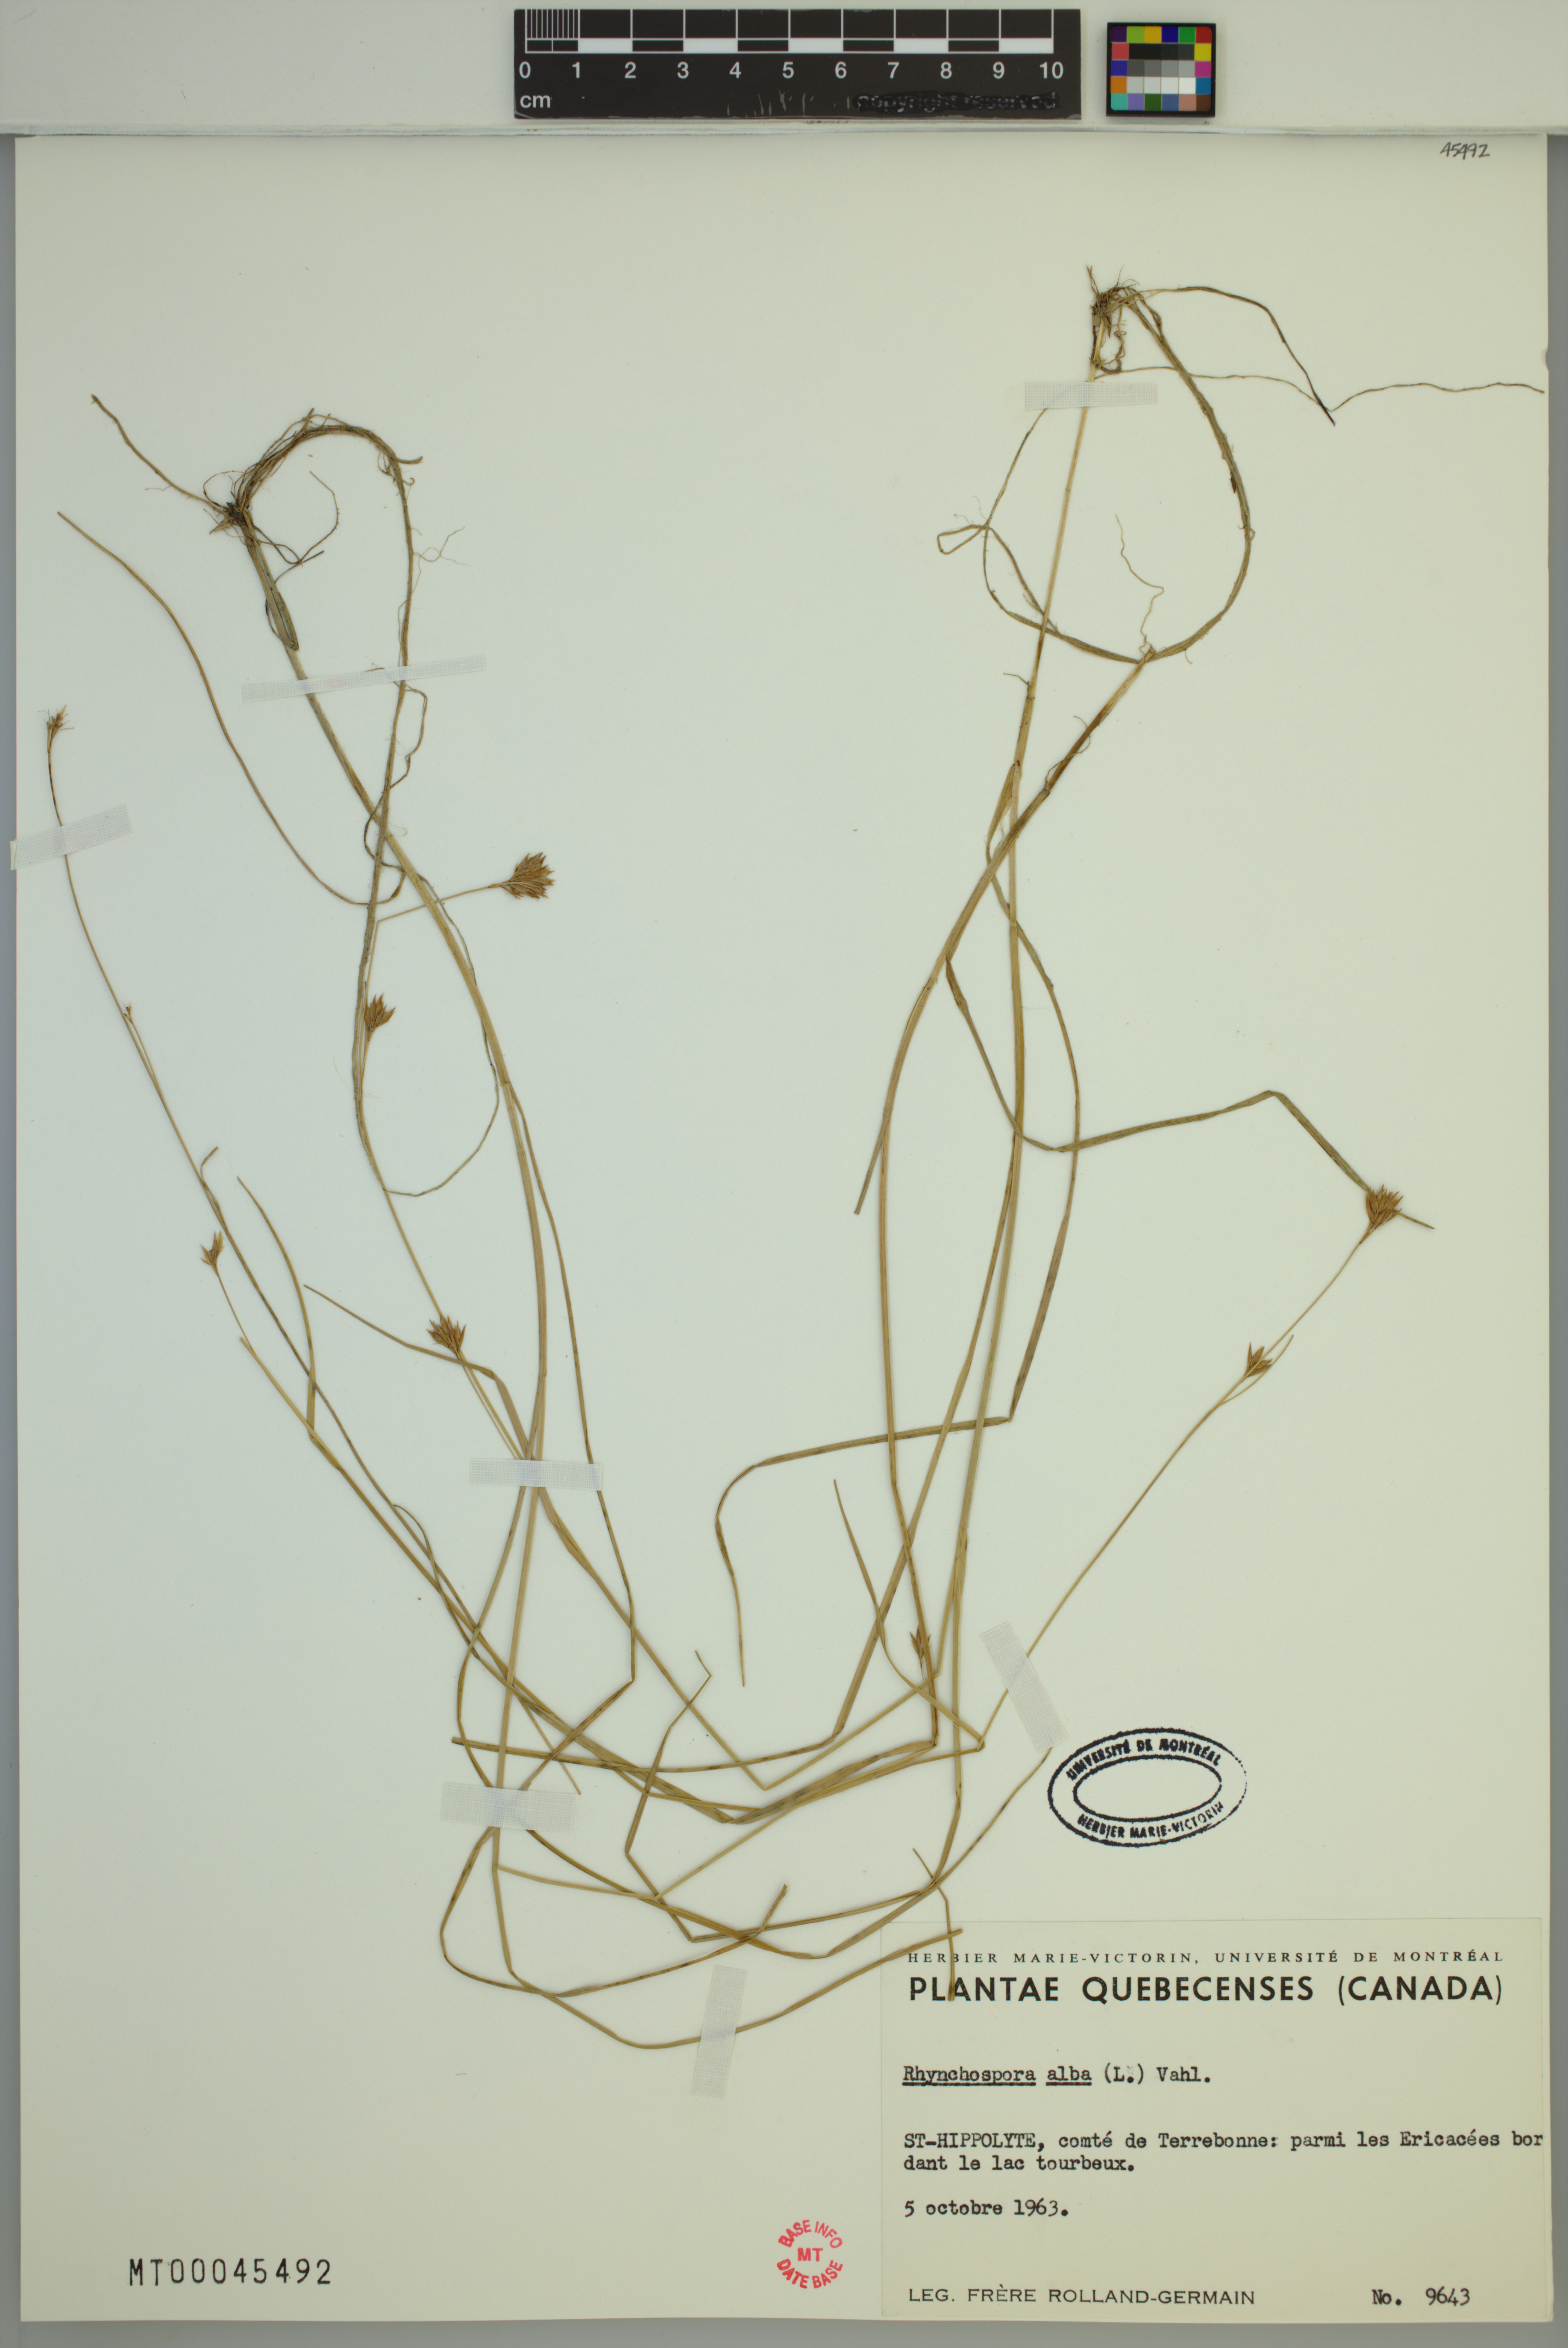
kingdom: Plantae
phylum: Tracheophyta
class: Liliopsida
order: Poales
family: Cyperaceae
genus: Rhynchospora
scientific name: Rhynchospora alba
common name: White beak-sedge
